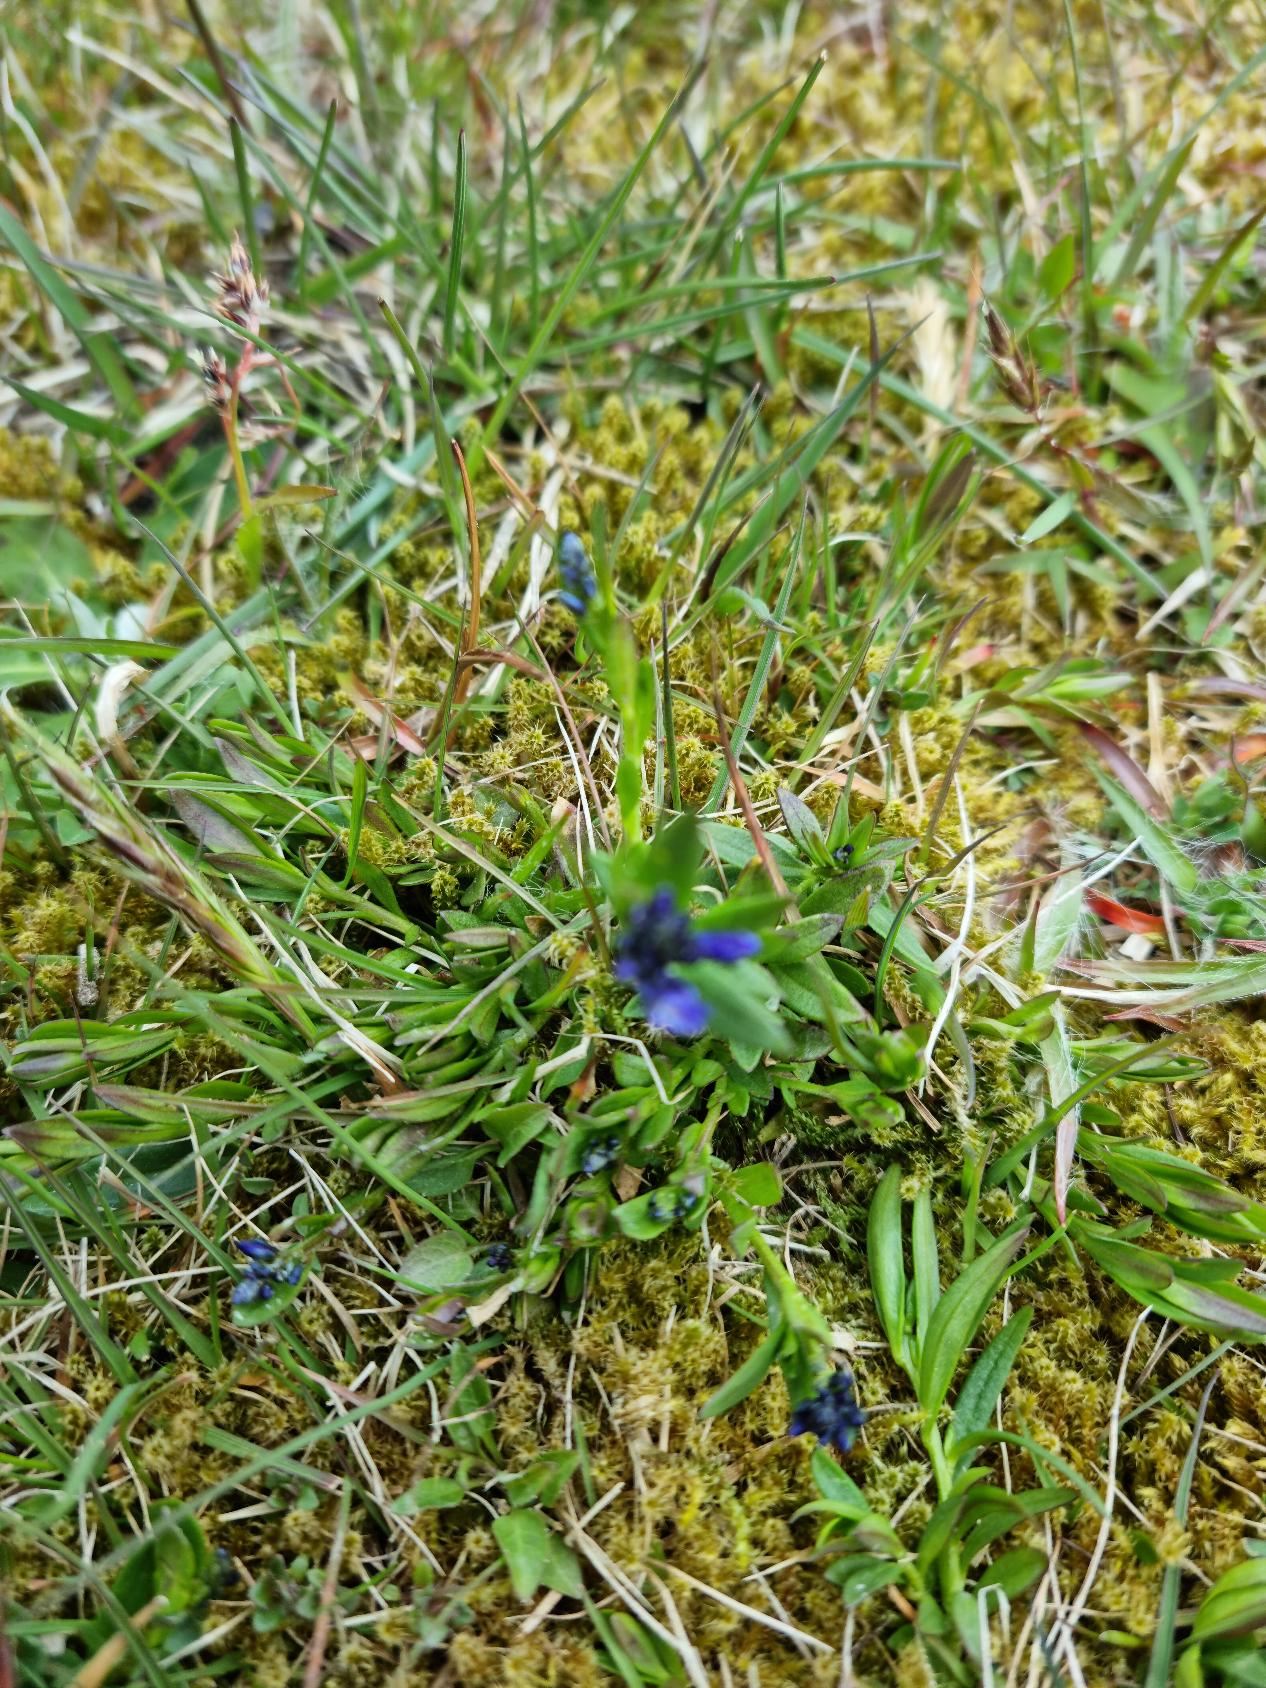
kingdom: Plantae
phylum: Tracheophyta
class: Magnoliopsida
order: Fabales
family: Polygalaceae
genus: Polygala
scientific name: Polygala vulgaris
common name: Almindelig mælkeurt
